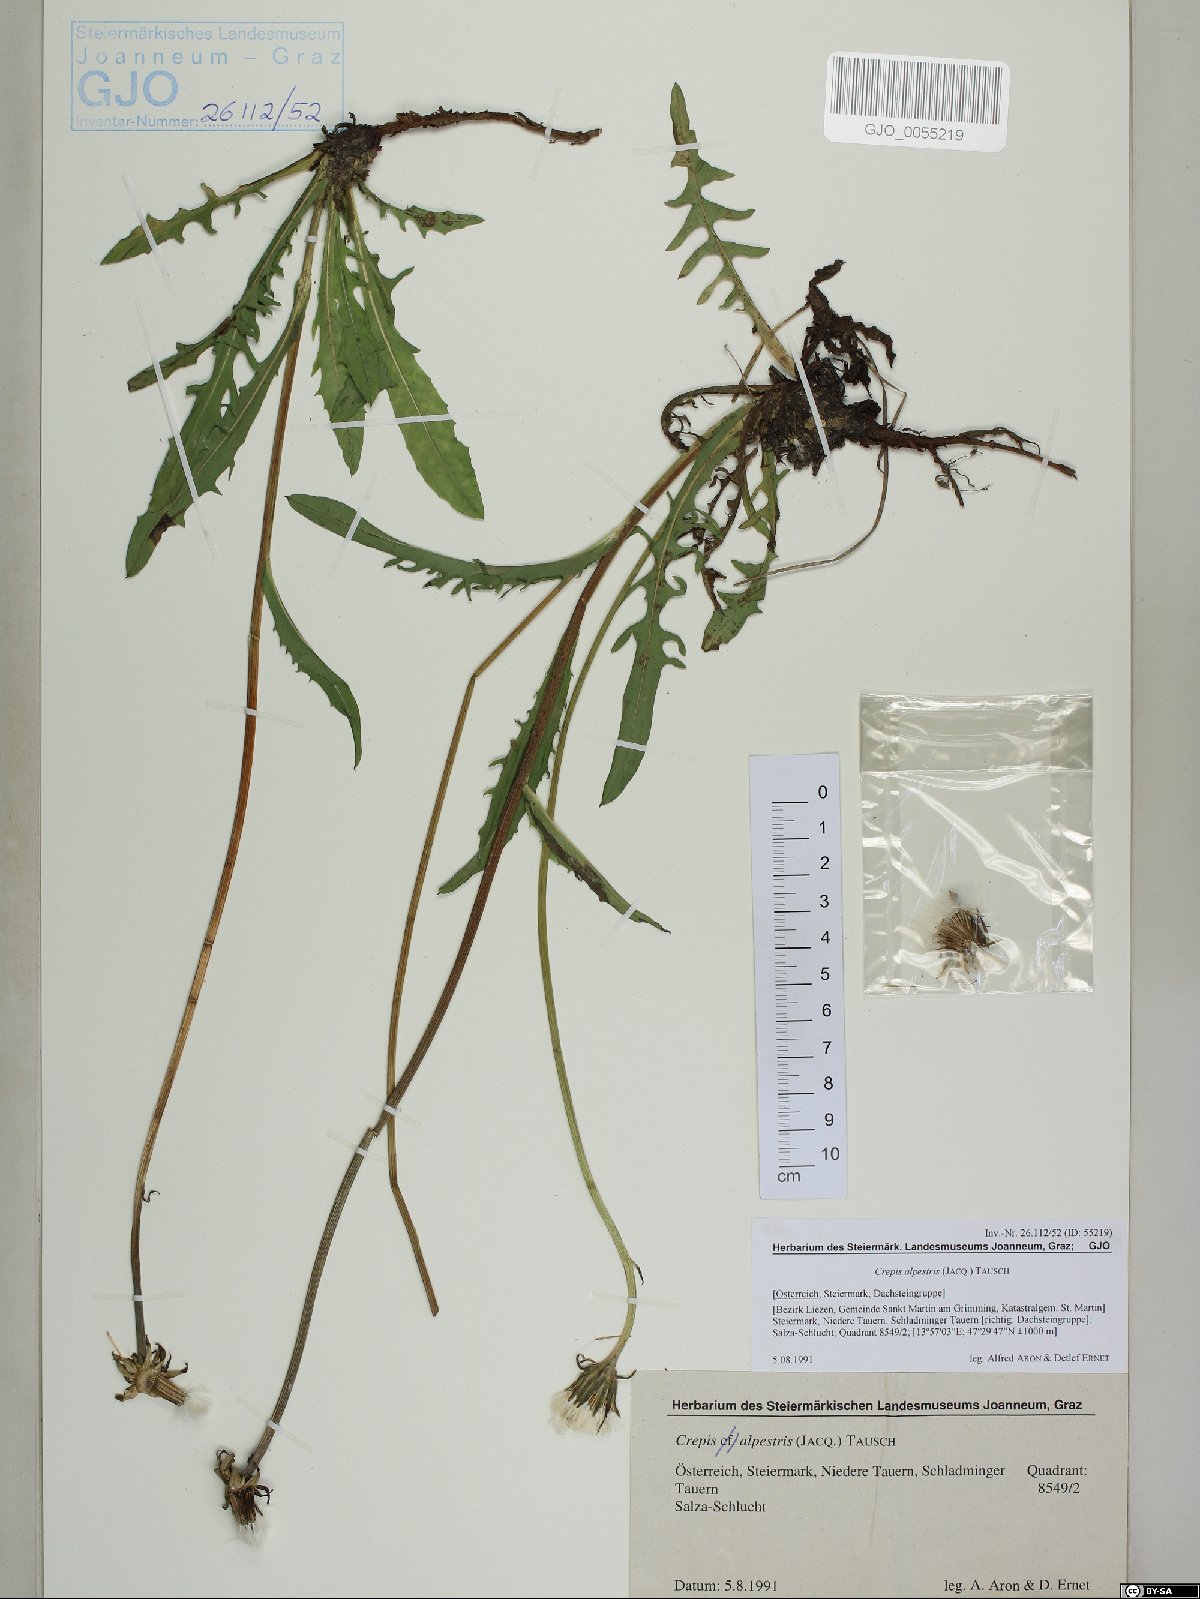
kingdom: Plantae
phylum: Tracheophyta
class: Magnoliopsida
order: Asterales
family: Asteraceae
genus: Crepis
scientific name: Crepis alpestris
